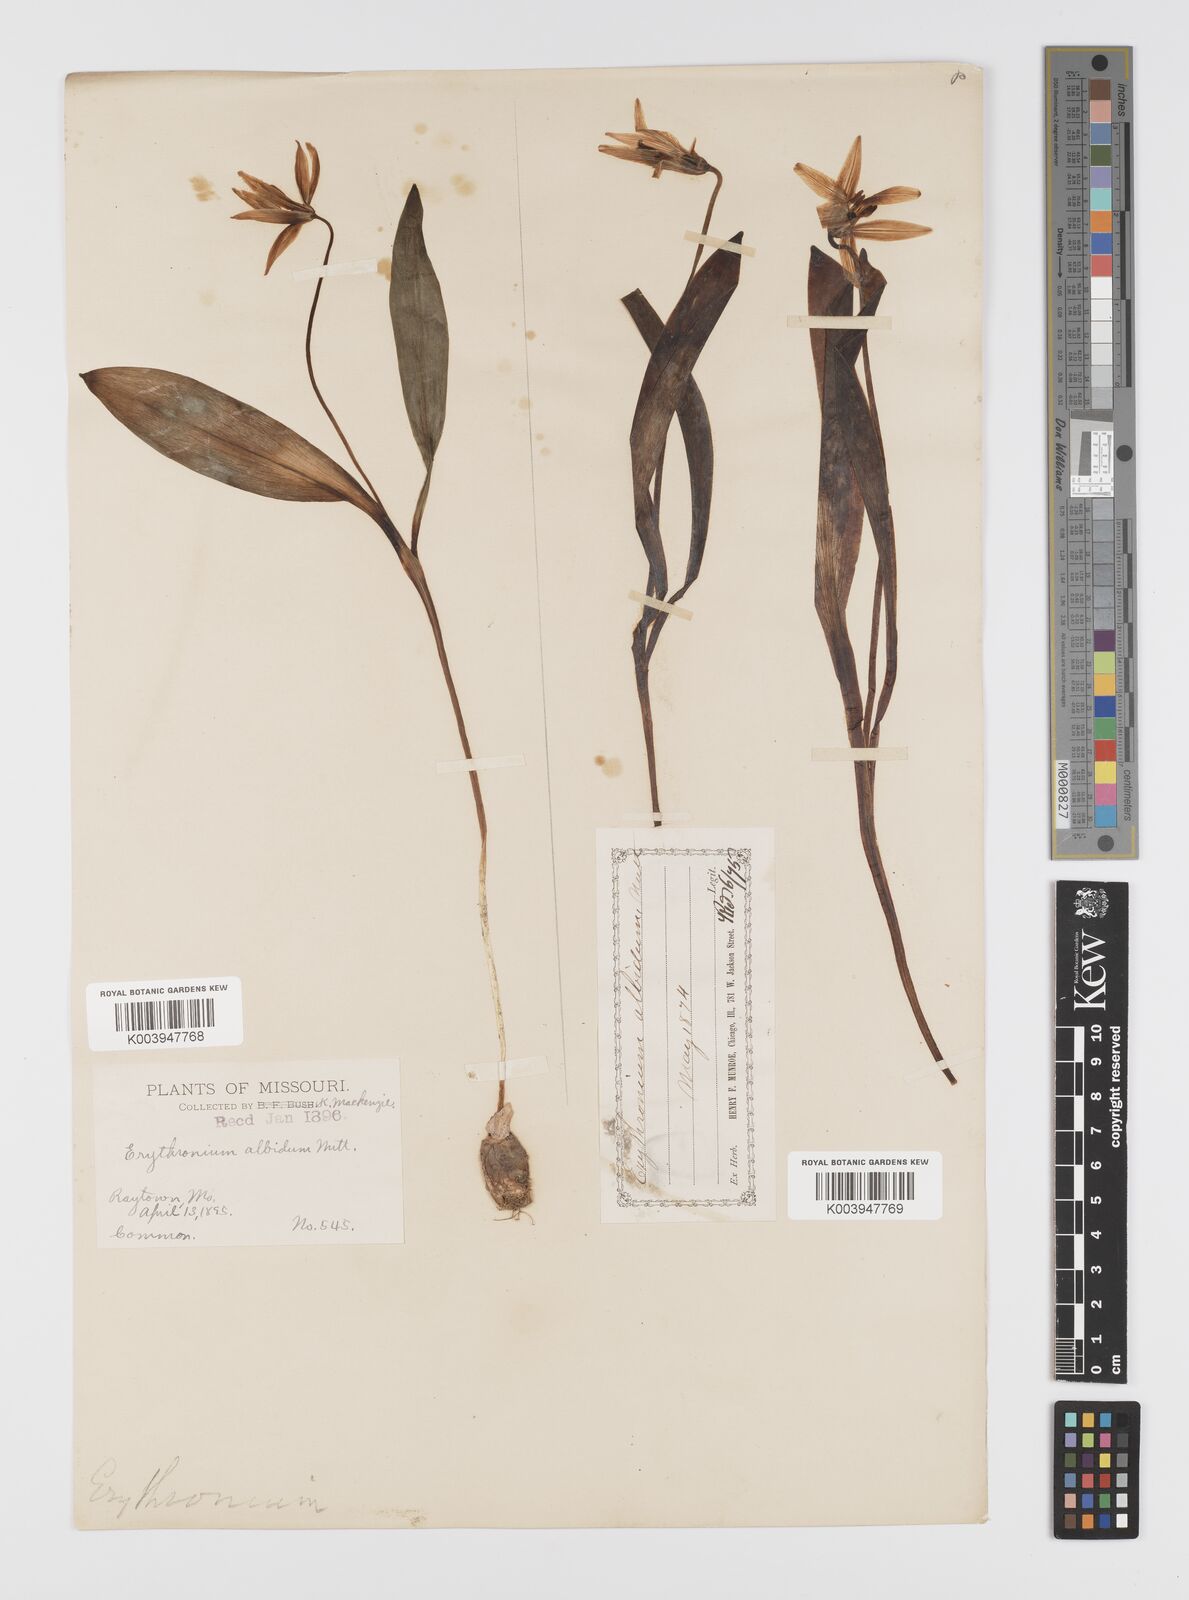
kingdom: Plantae
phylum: Tracheophyta
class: Liliopsida
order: Liliales
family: Liliaceae
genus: Erythronium
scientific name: Erythronium albidum
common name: White trout-lily
